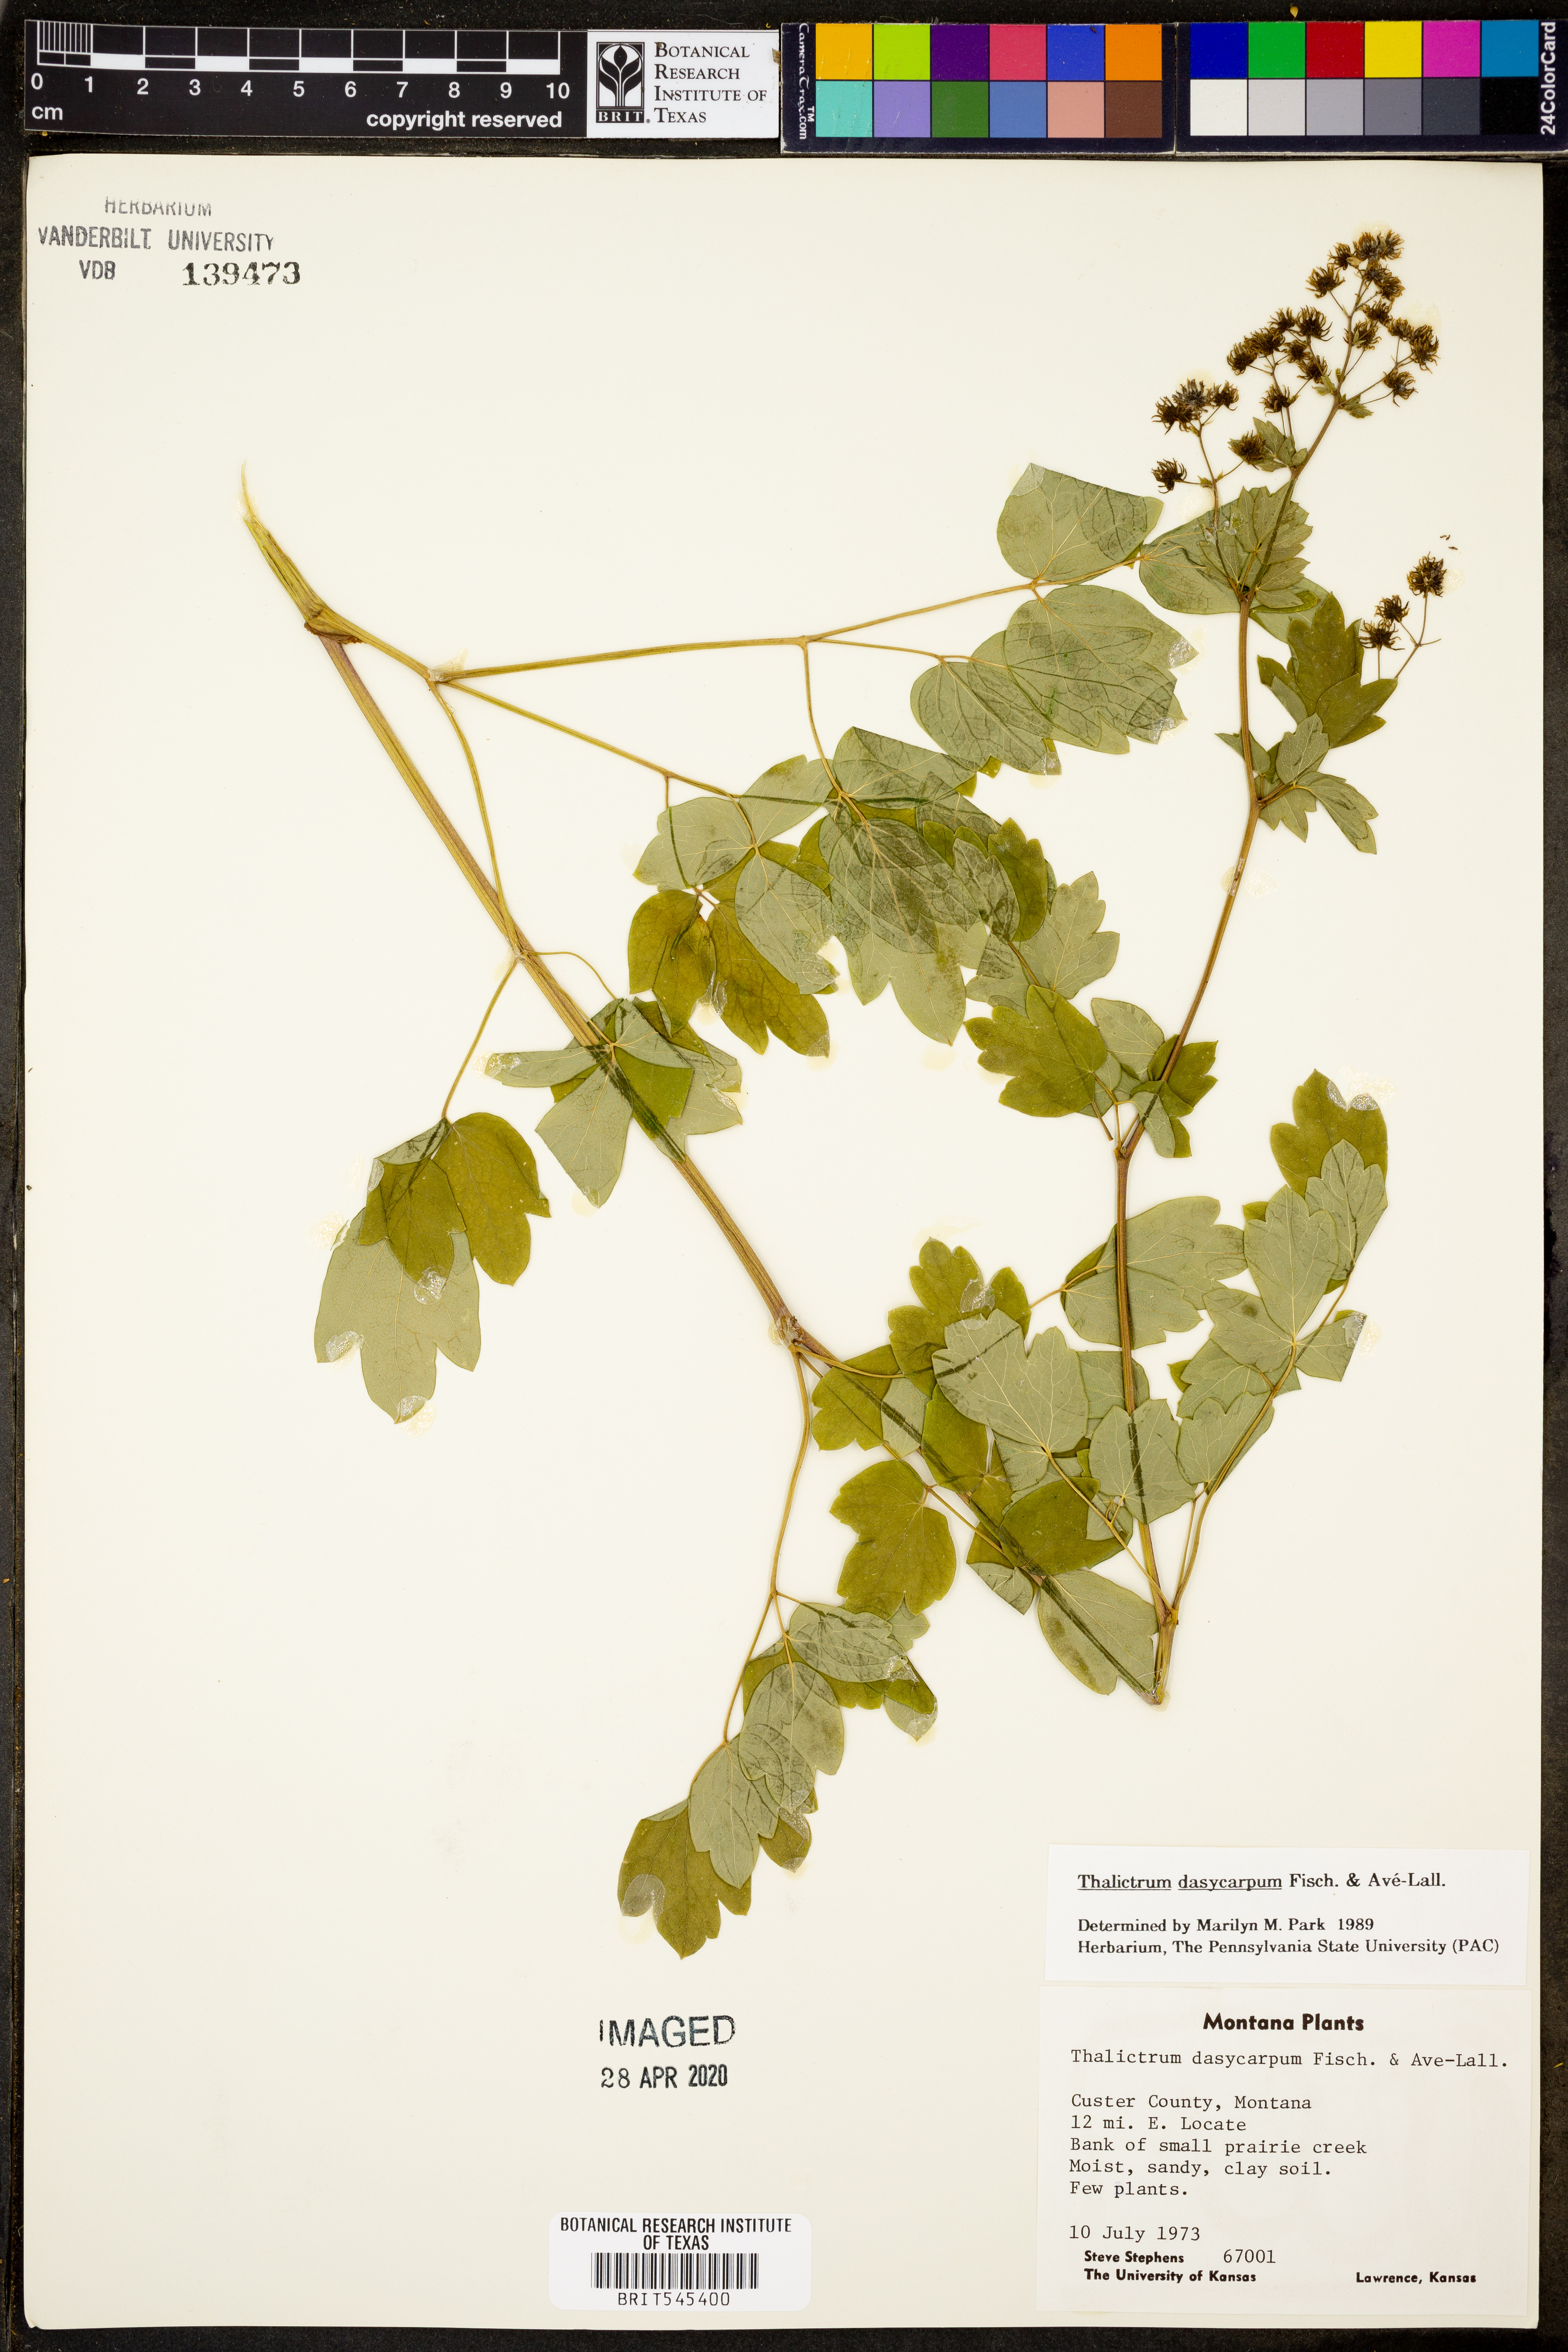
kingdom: Plantae
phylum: Tracheophyta
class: Magnoliopsida
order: Ranunculales
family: Ranunculaceae
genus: Thalictrum
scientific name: Thalictrum dasycarpum
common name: Purple meadow-rue
